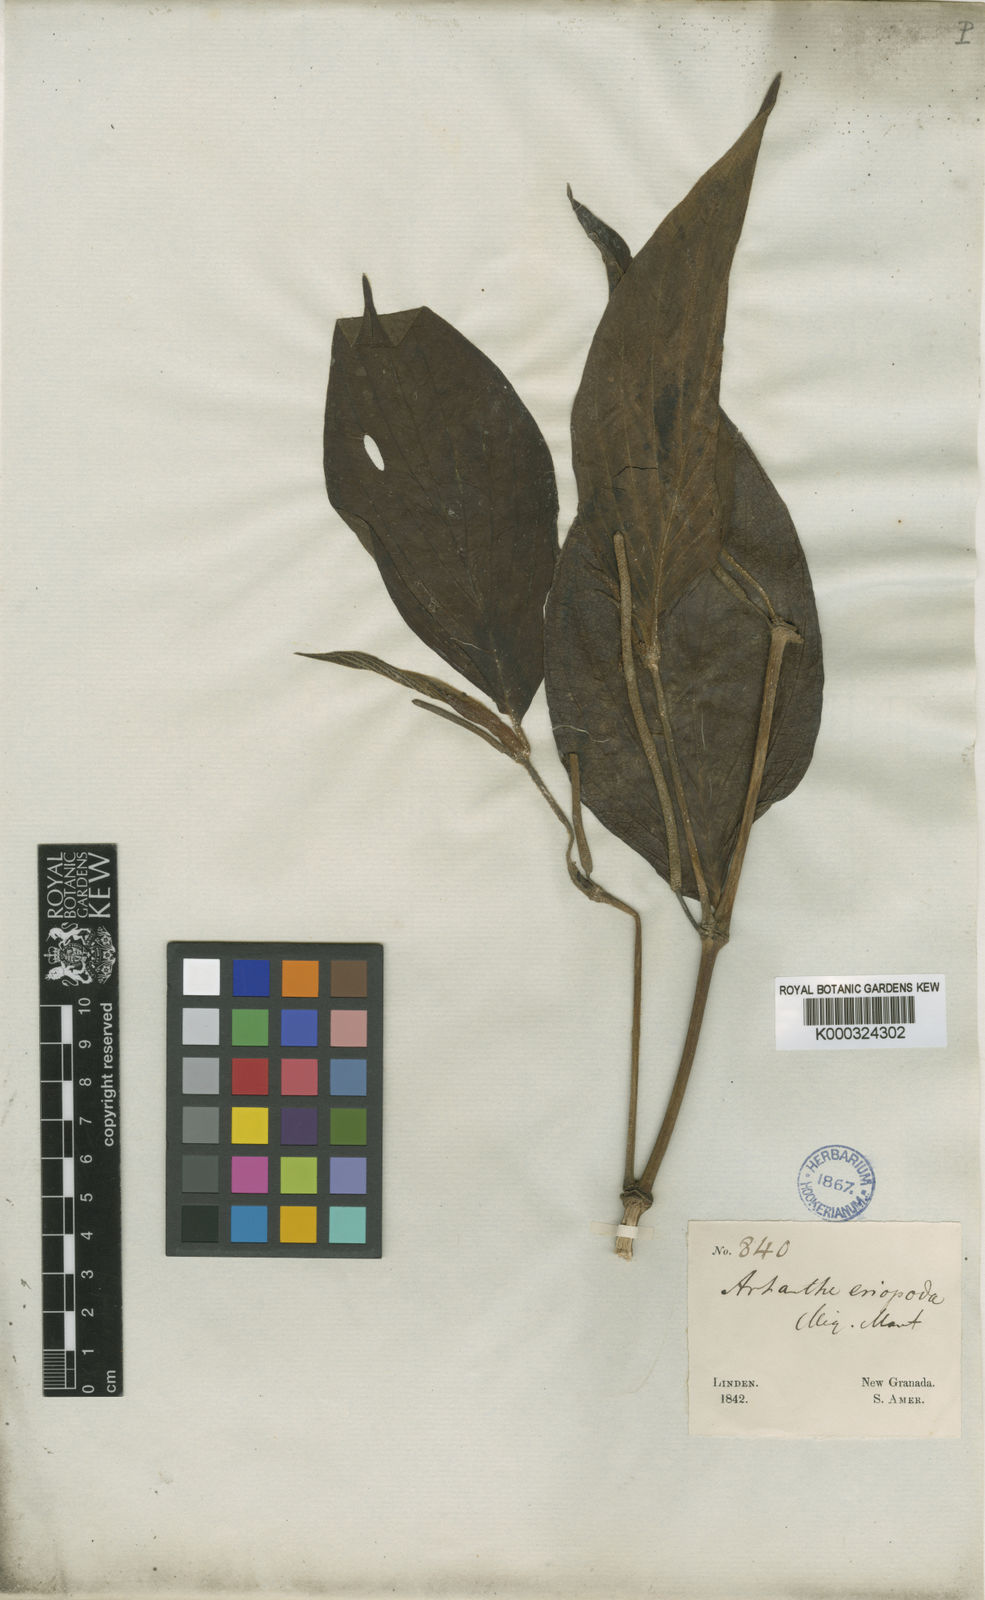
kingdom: Plantae
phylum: Tracheophyta
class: Magnoliopsida
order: Piperales
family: Piperaceae
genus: Piper
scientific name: Piper eriopodon
